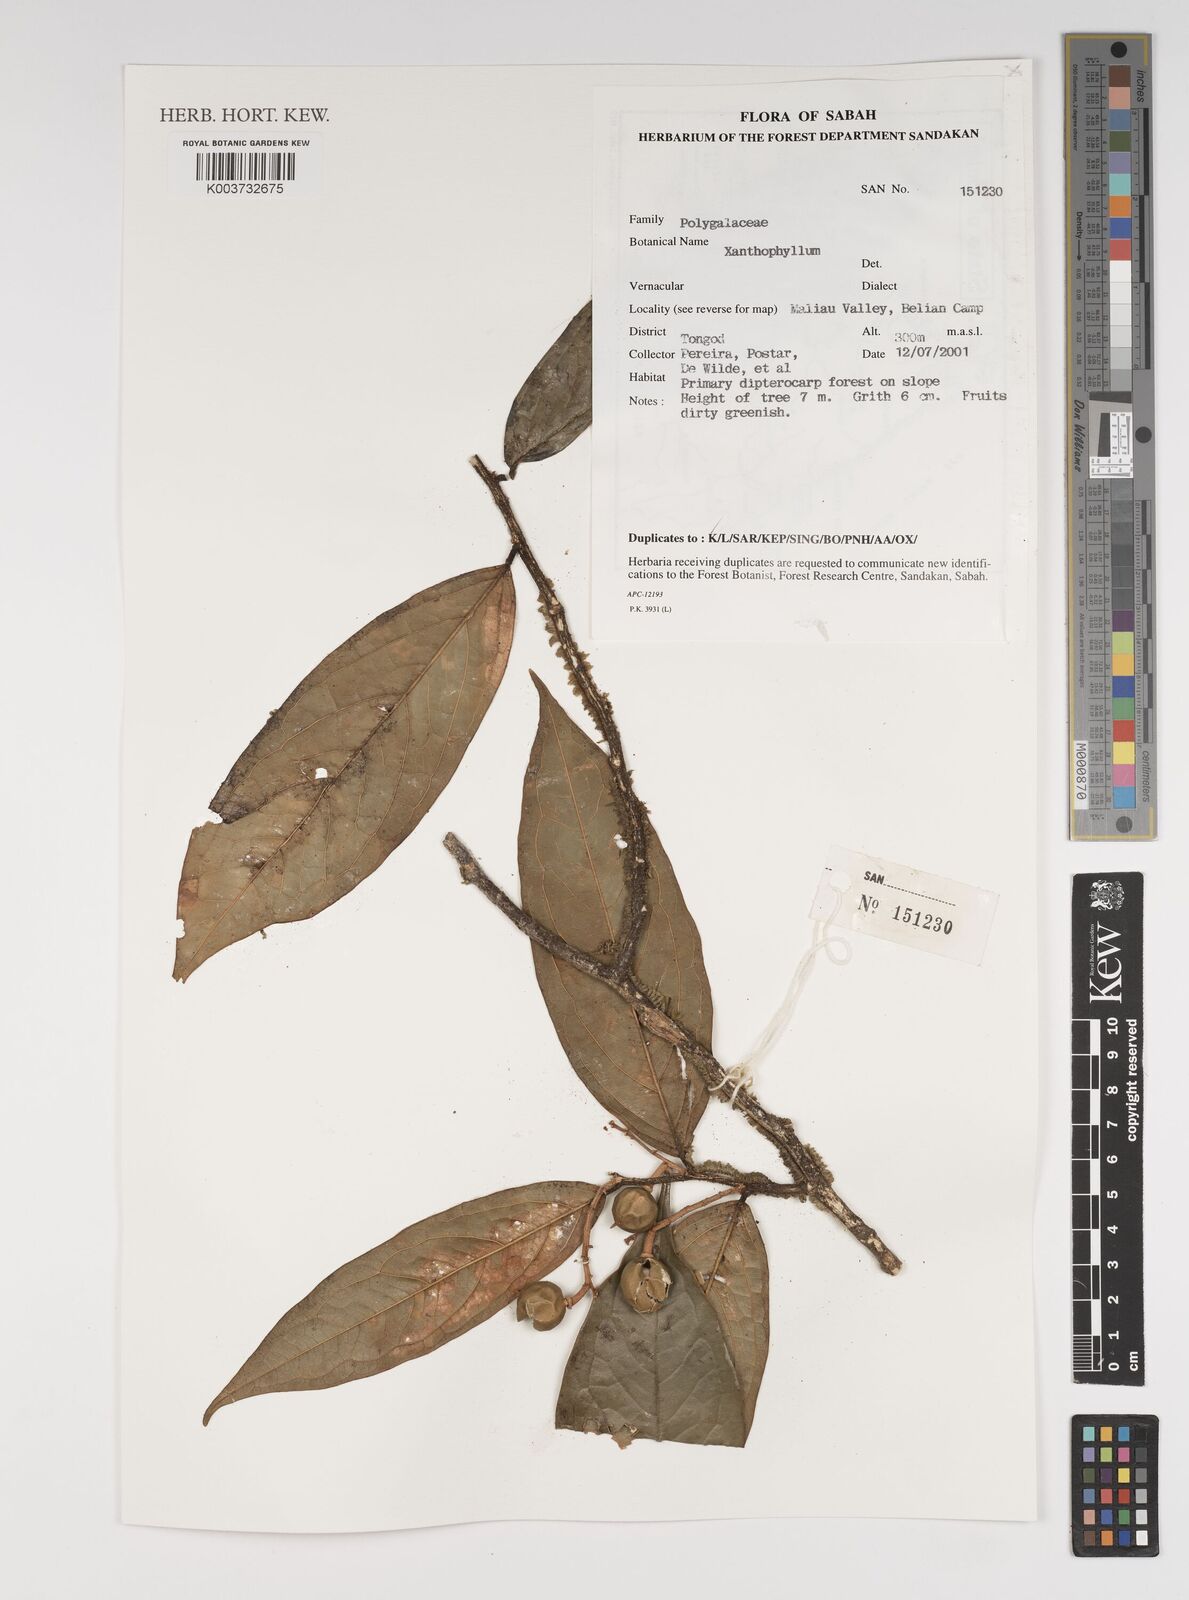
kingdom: Plantae
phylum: Tracheophyta
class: Magnoliopsida
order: Fabales
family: Polygalaceae
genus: Xanthophyllum
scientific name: Xanthophyllum
